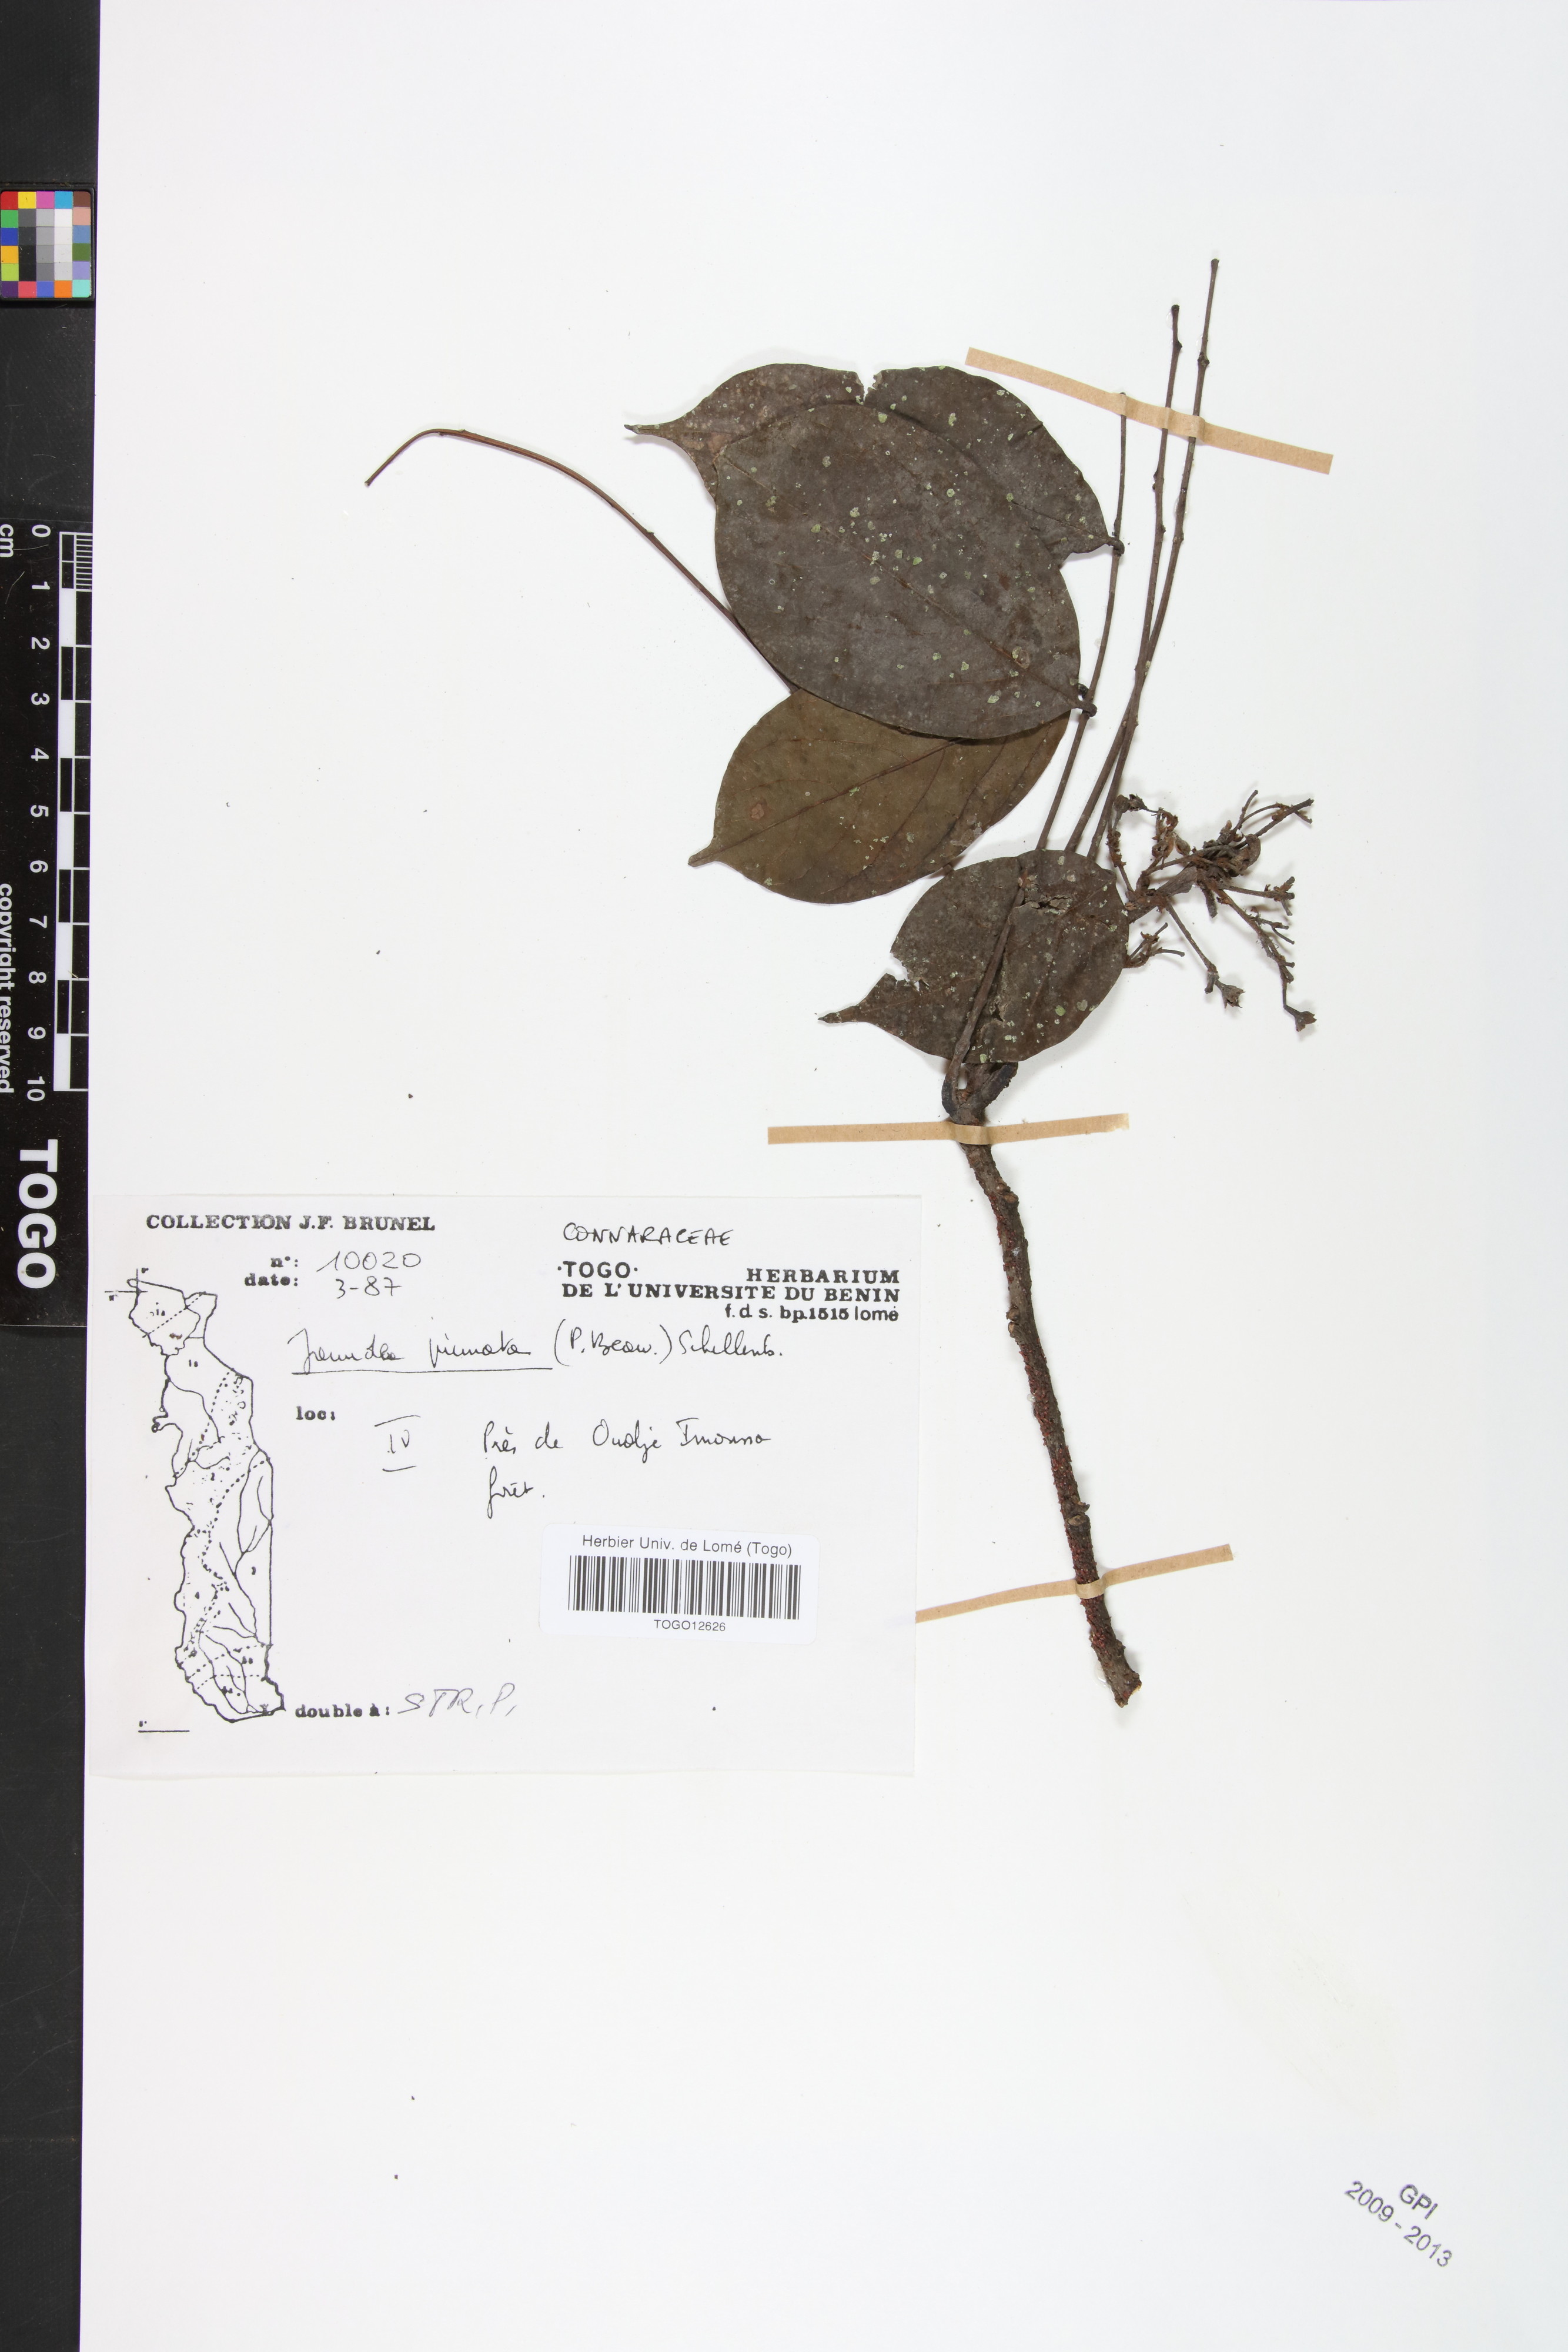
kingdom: Plantae
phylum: Tracheophyta
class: Magnoliopsida
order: Oxalidales
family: Connaraceae
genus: Rourea
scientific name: Rourea thomsonii
